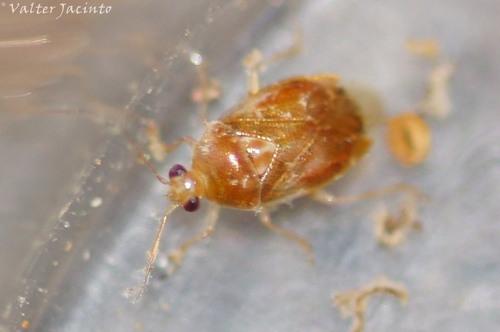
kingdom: Animalia
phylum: Arthropoda
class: Insecta
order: Hemiptera
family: Miridae
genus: Deraeocoris
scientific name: Deraeocoris lutescens
